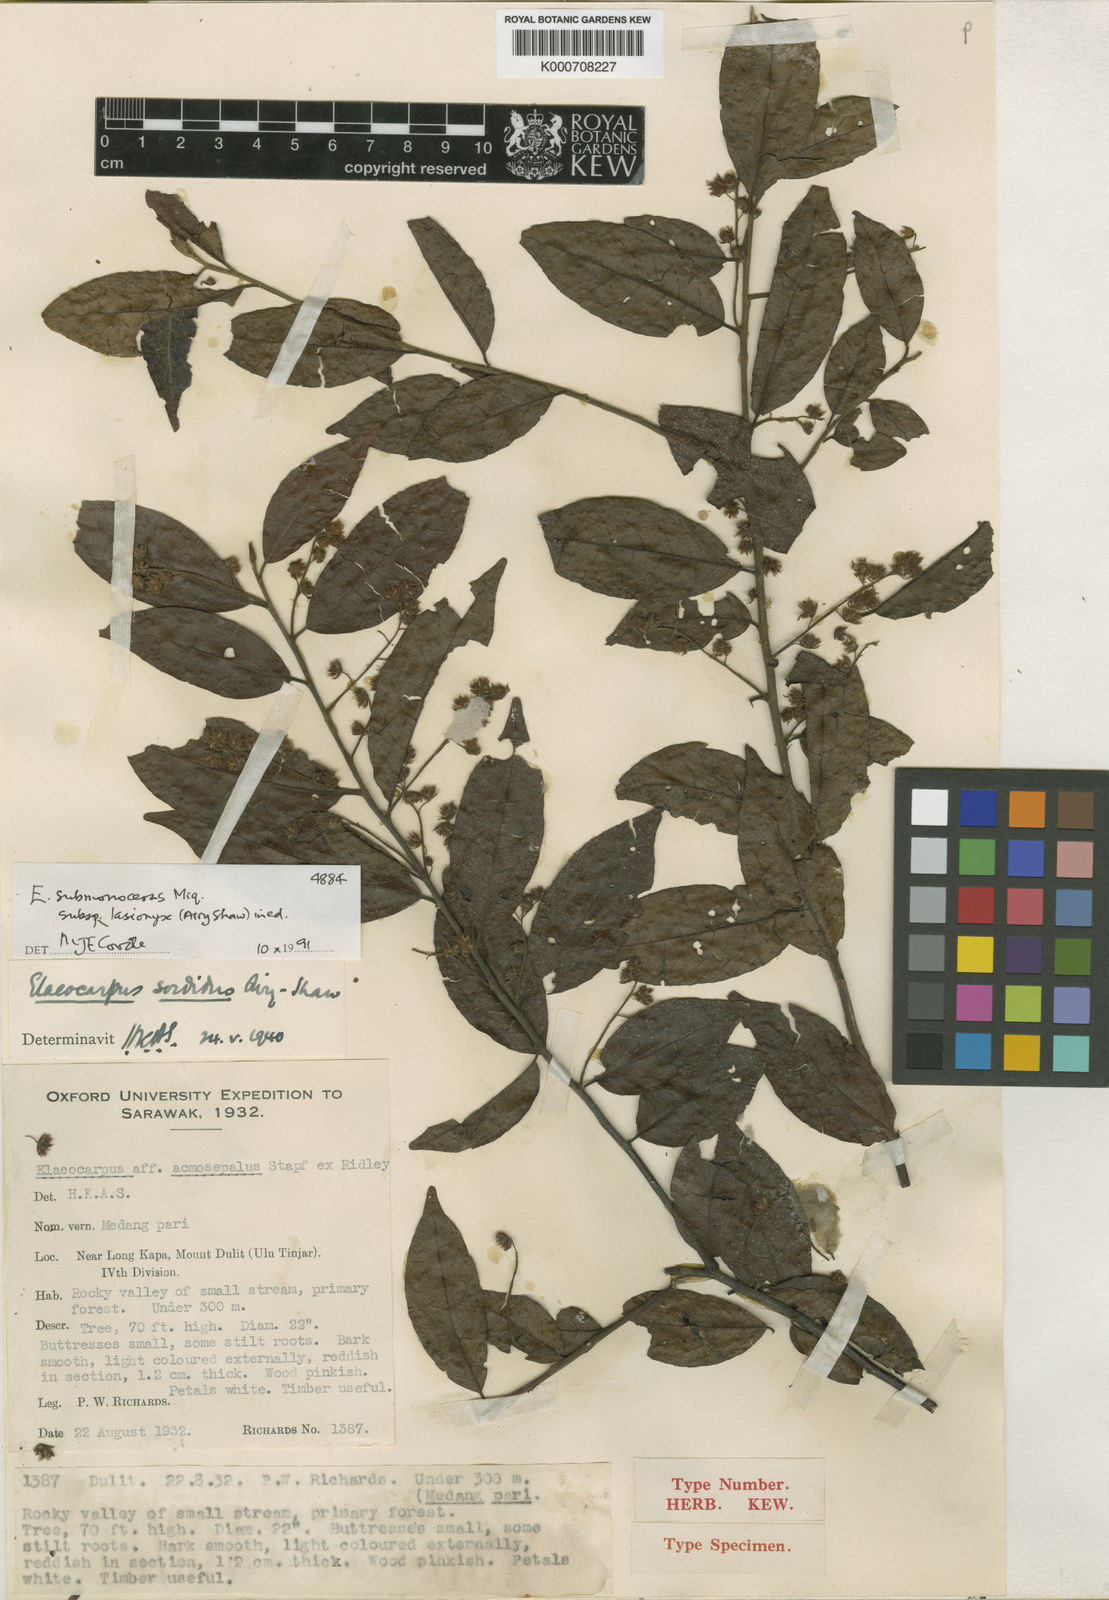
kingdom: Plantae
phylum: Tracheophyta
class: Magnoliopsida
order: Oxalidales
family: Elaeocarpaceae
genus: Elaeocarpus
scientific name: Elaeocarpus submonoceras
